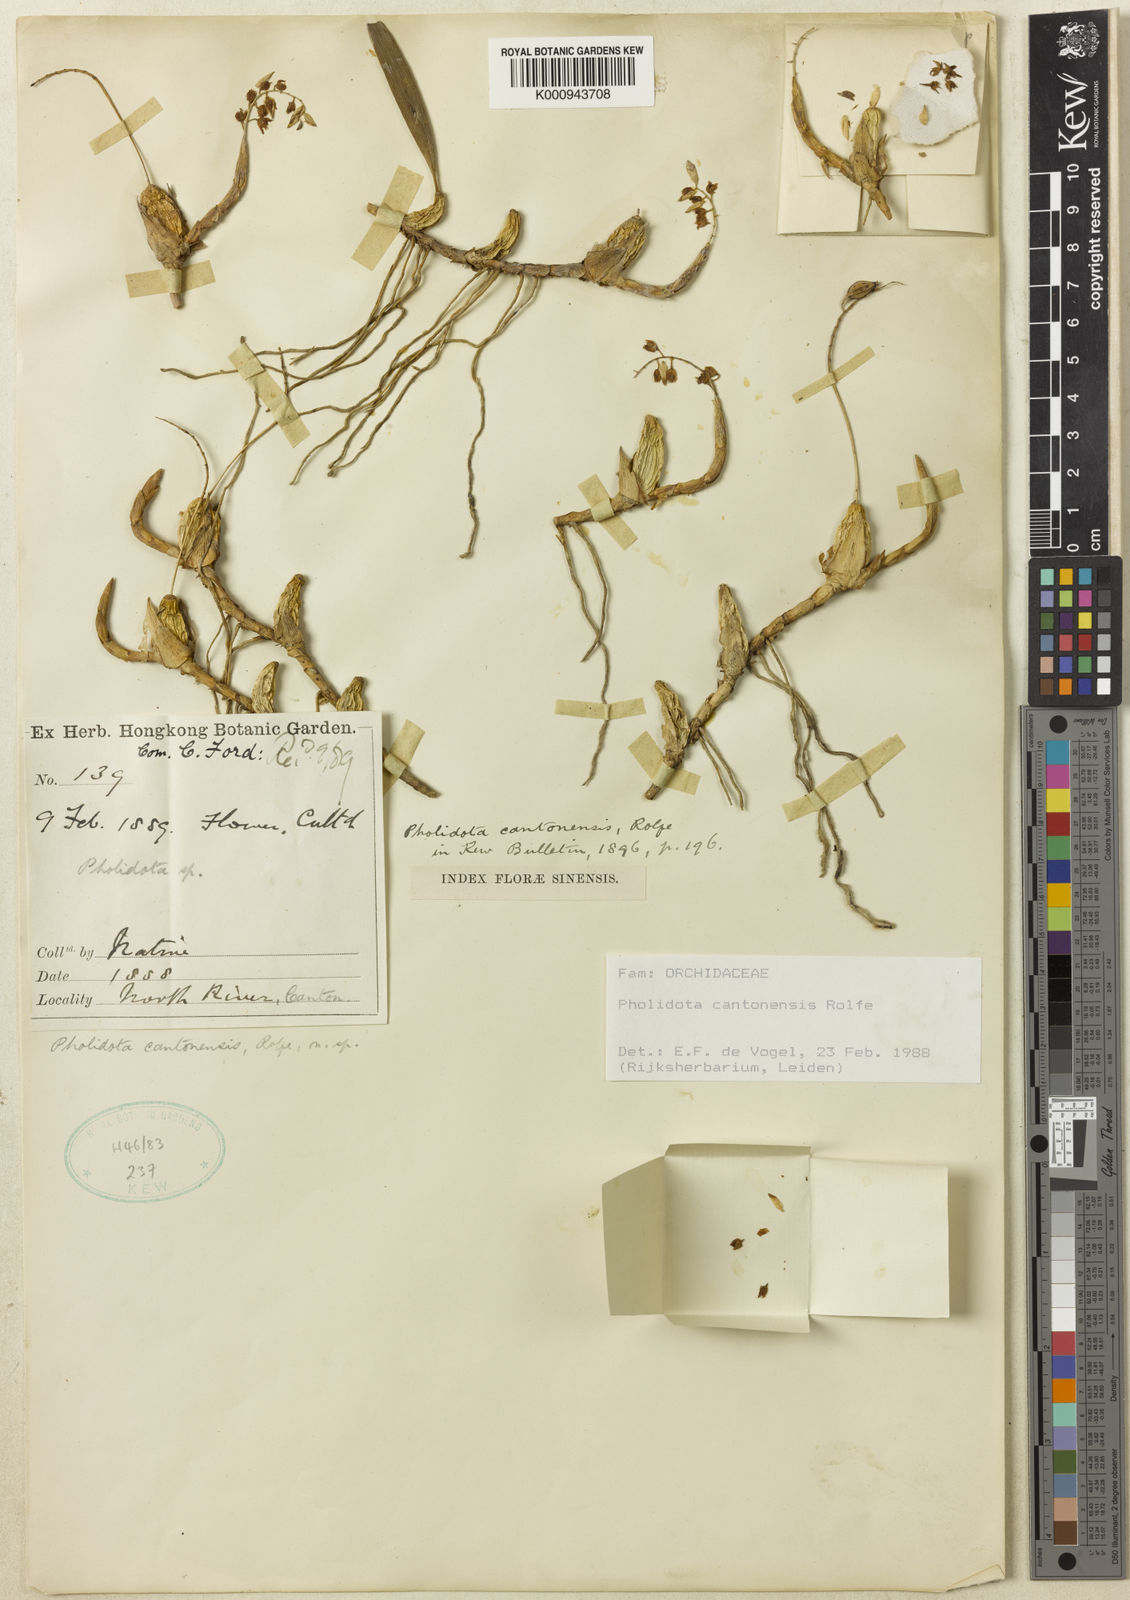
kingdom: Plantae
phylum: Tracheophyta
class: Liliopsida
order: Asparagales
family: Orchidaceae
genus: Coelogyne
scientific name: Coelogyne cantonensis
